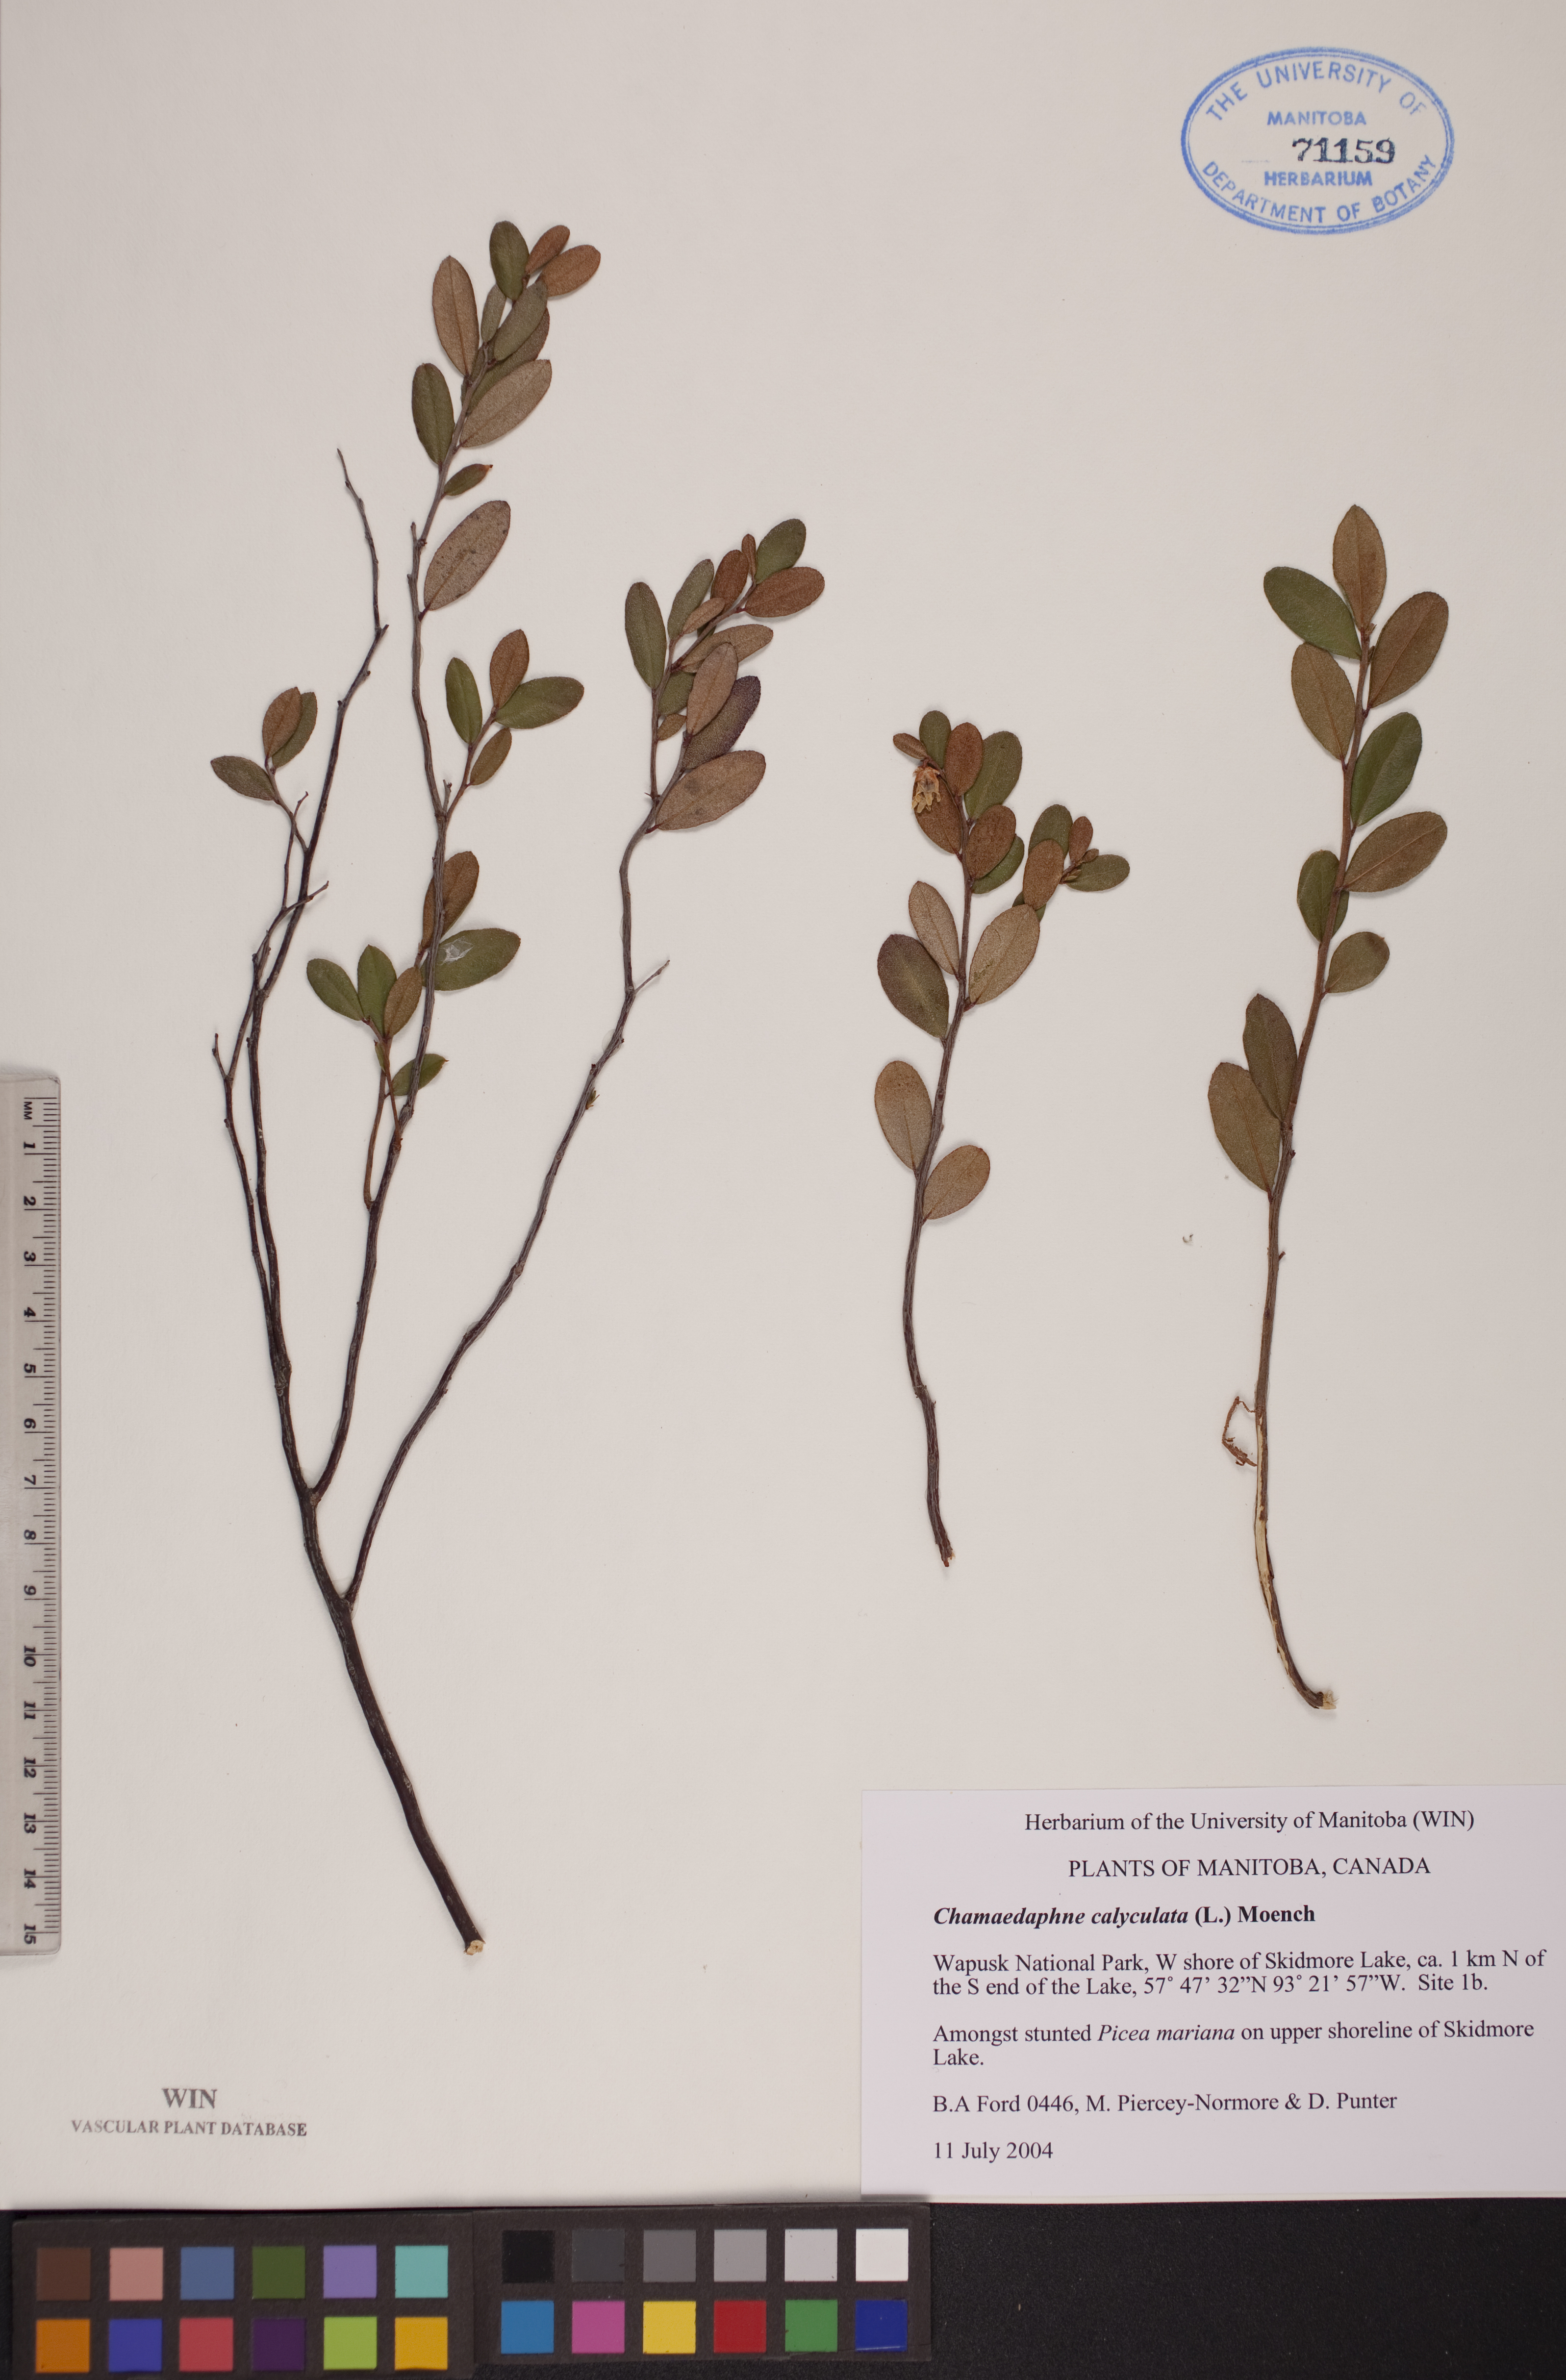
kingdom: Plantae
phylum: Tracheophyta
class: Magnoliopsida
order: Ericales
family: Ericaceae
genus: Chamaedaphne
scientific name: Chamaedaphne calyculata
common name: Leatherleaf
